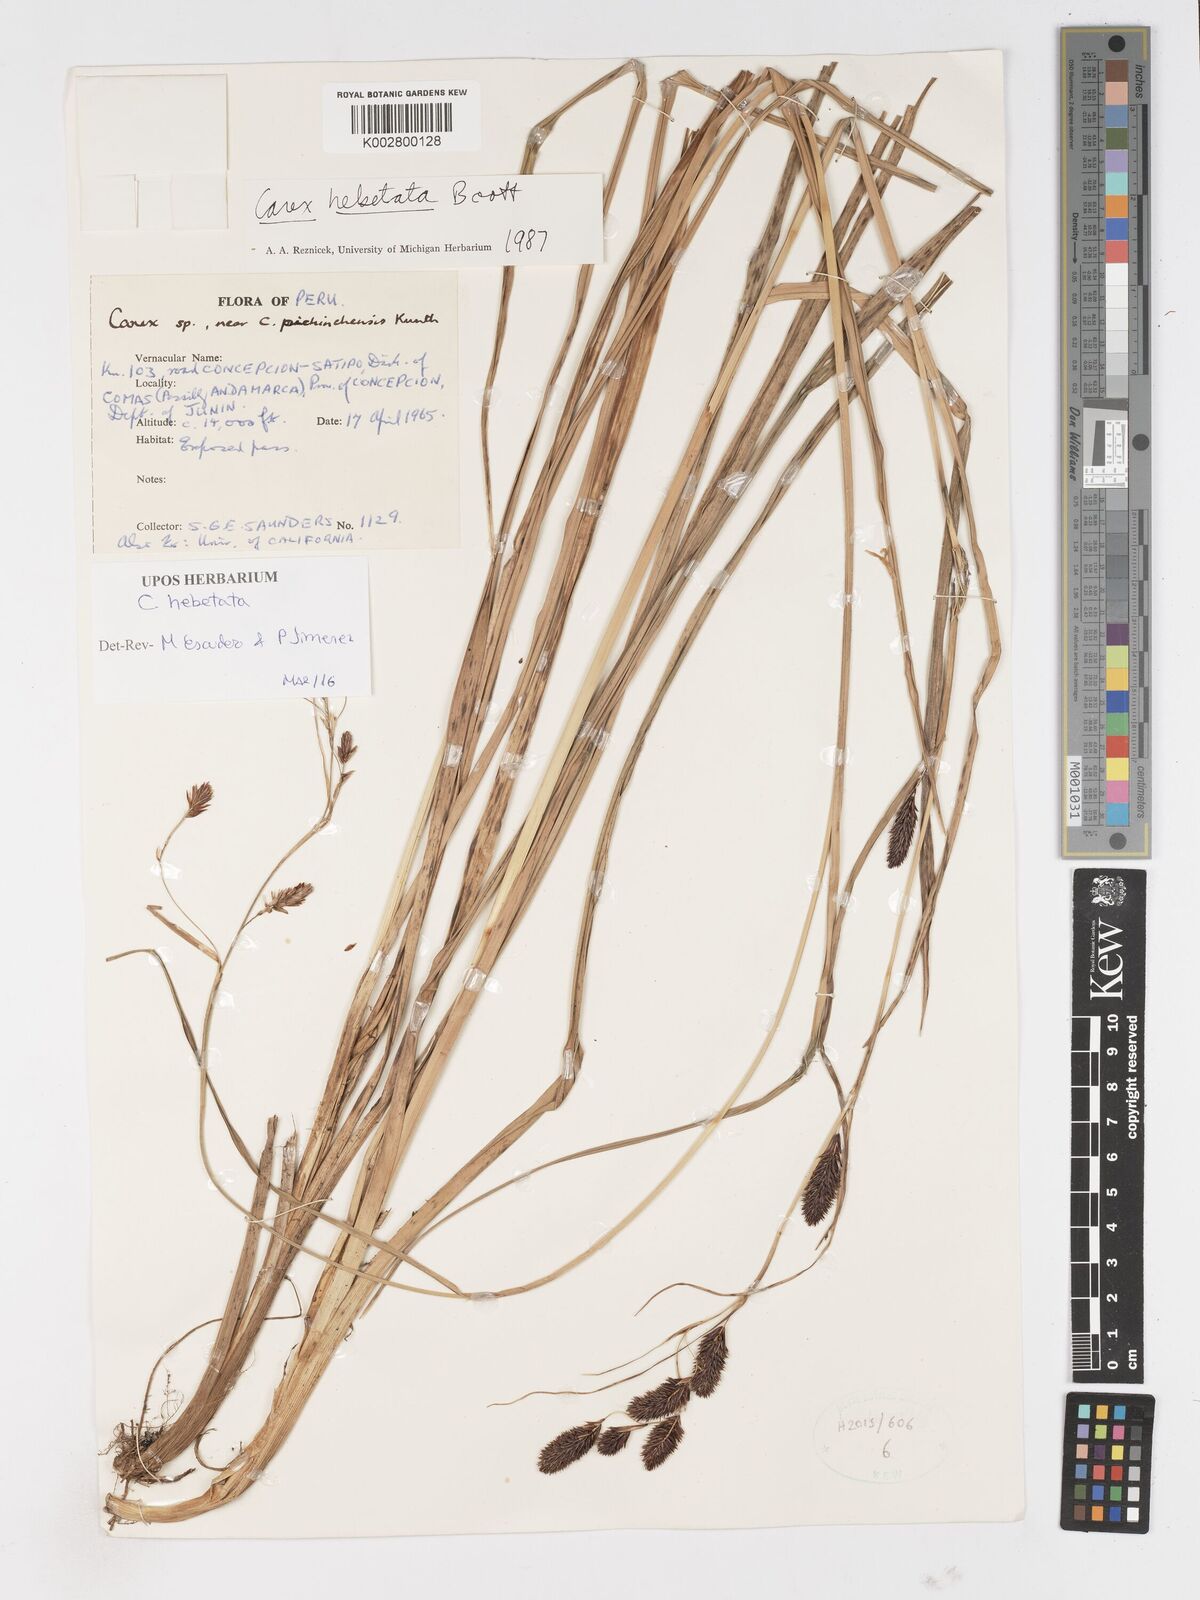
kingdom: Plantae
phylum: Tracheophyta
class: Liliopsida
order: Poales
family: Cyperaceae
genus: Carex
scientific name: Carex hebetata
